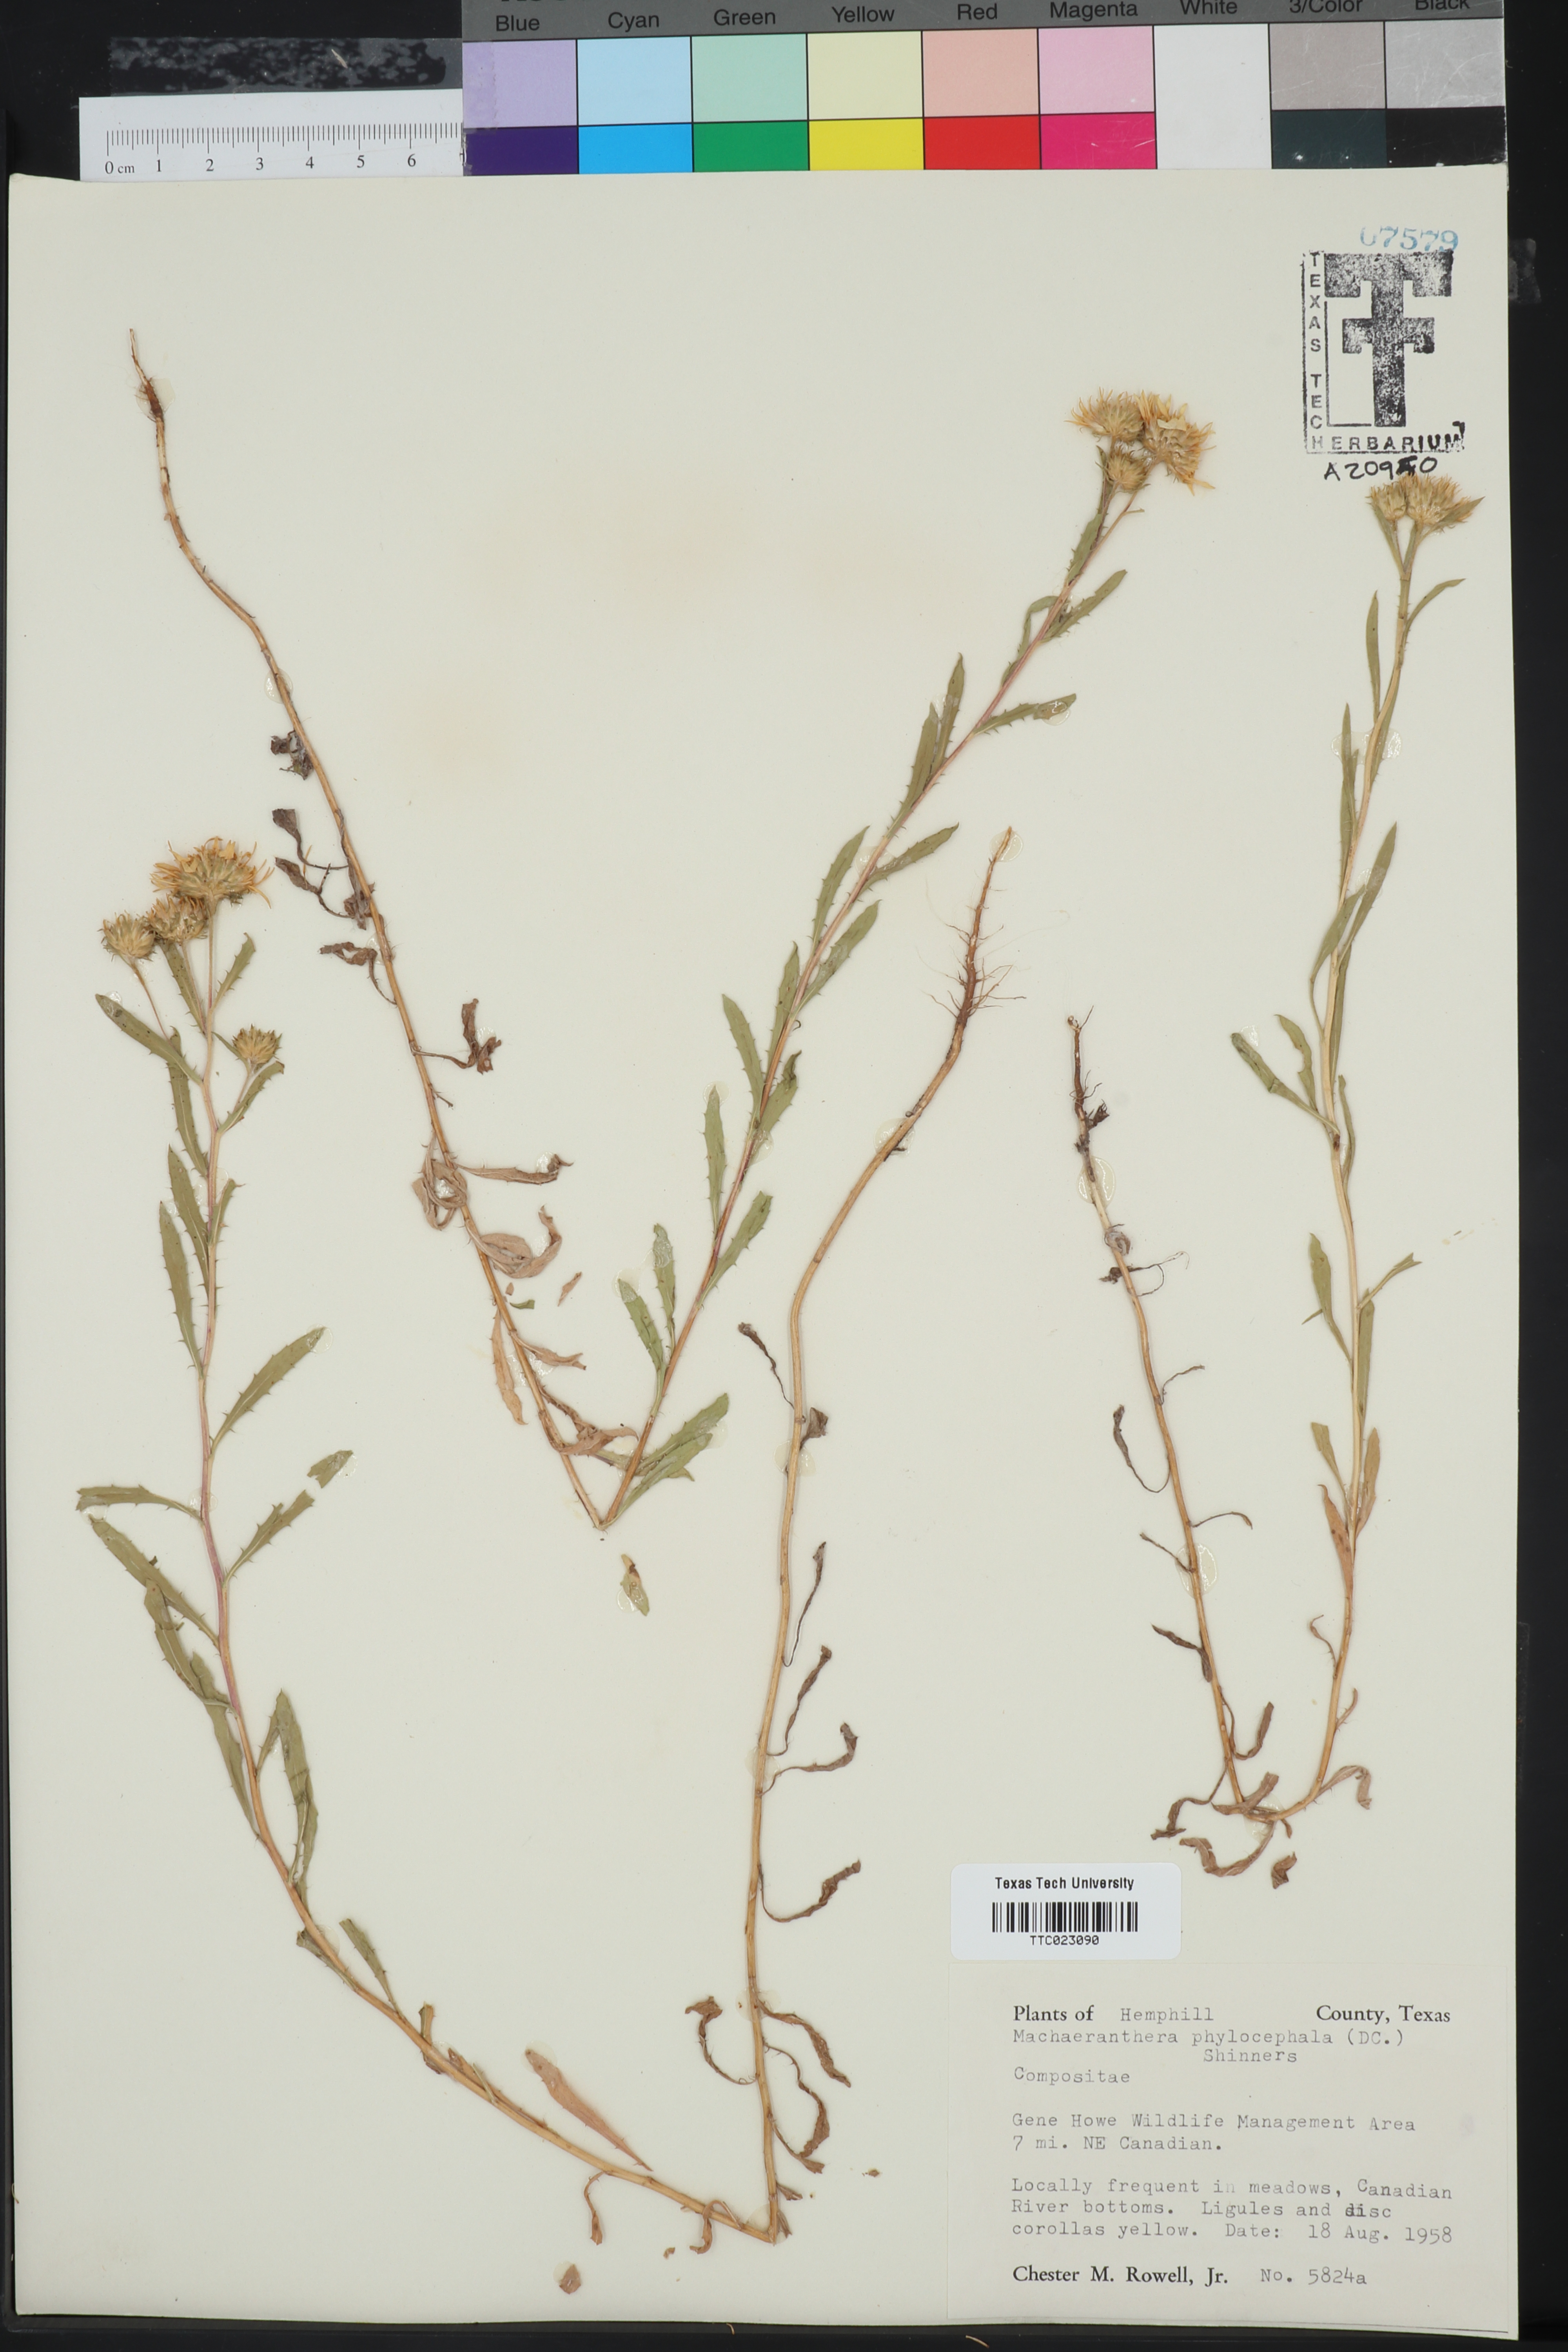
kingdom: Plantae
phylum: Tracheophyta
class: Magnoliopsida
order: Asterales
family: Asteraceae
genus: Rayjacksonia
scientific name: Rayjacksonia phyllocephala
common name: Gulf coast camphor daisy
